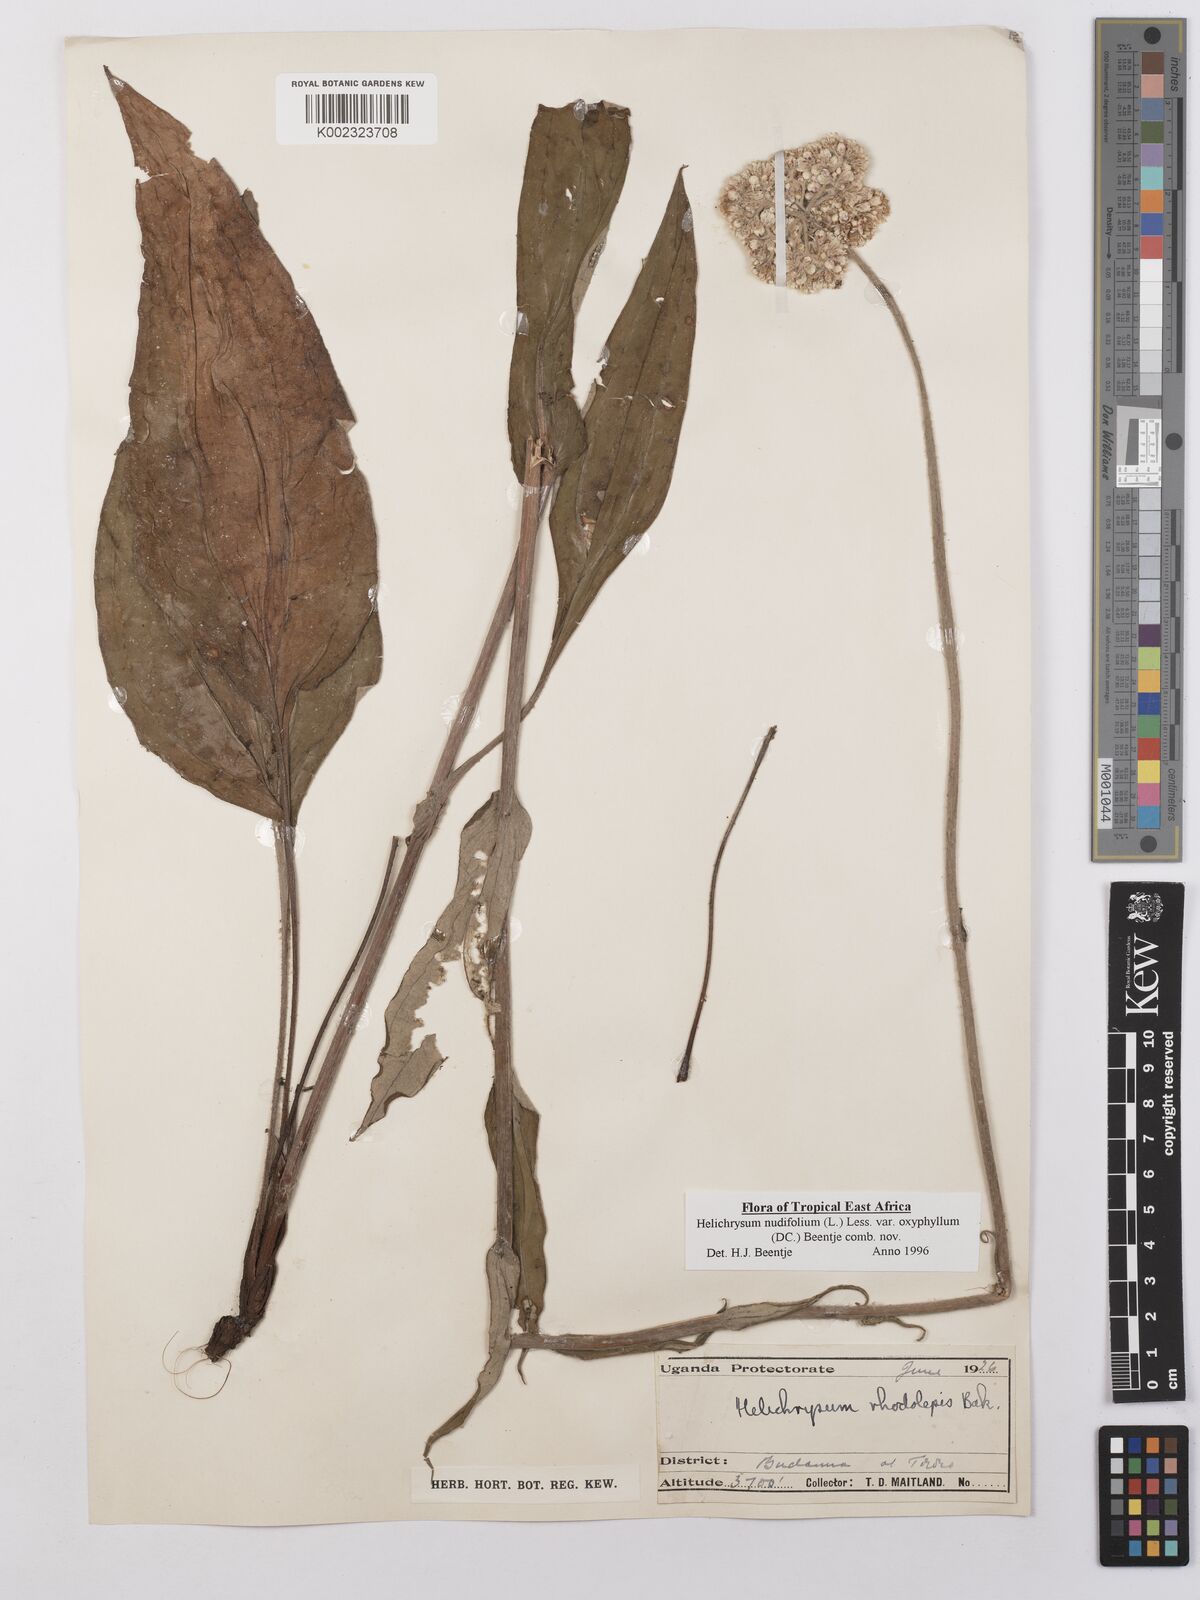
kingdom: Plantae
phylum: Tracheophyta
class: Magnoliopsida
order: Asterales
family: Asteraceae
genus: Helichrysum
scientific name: Helichrysum nudifolium
